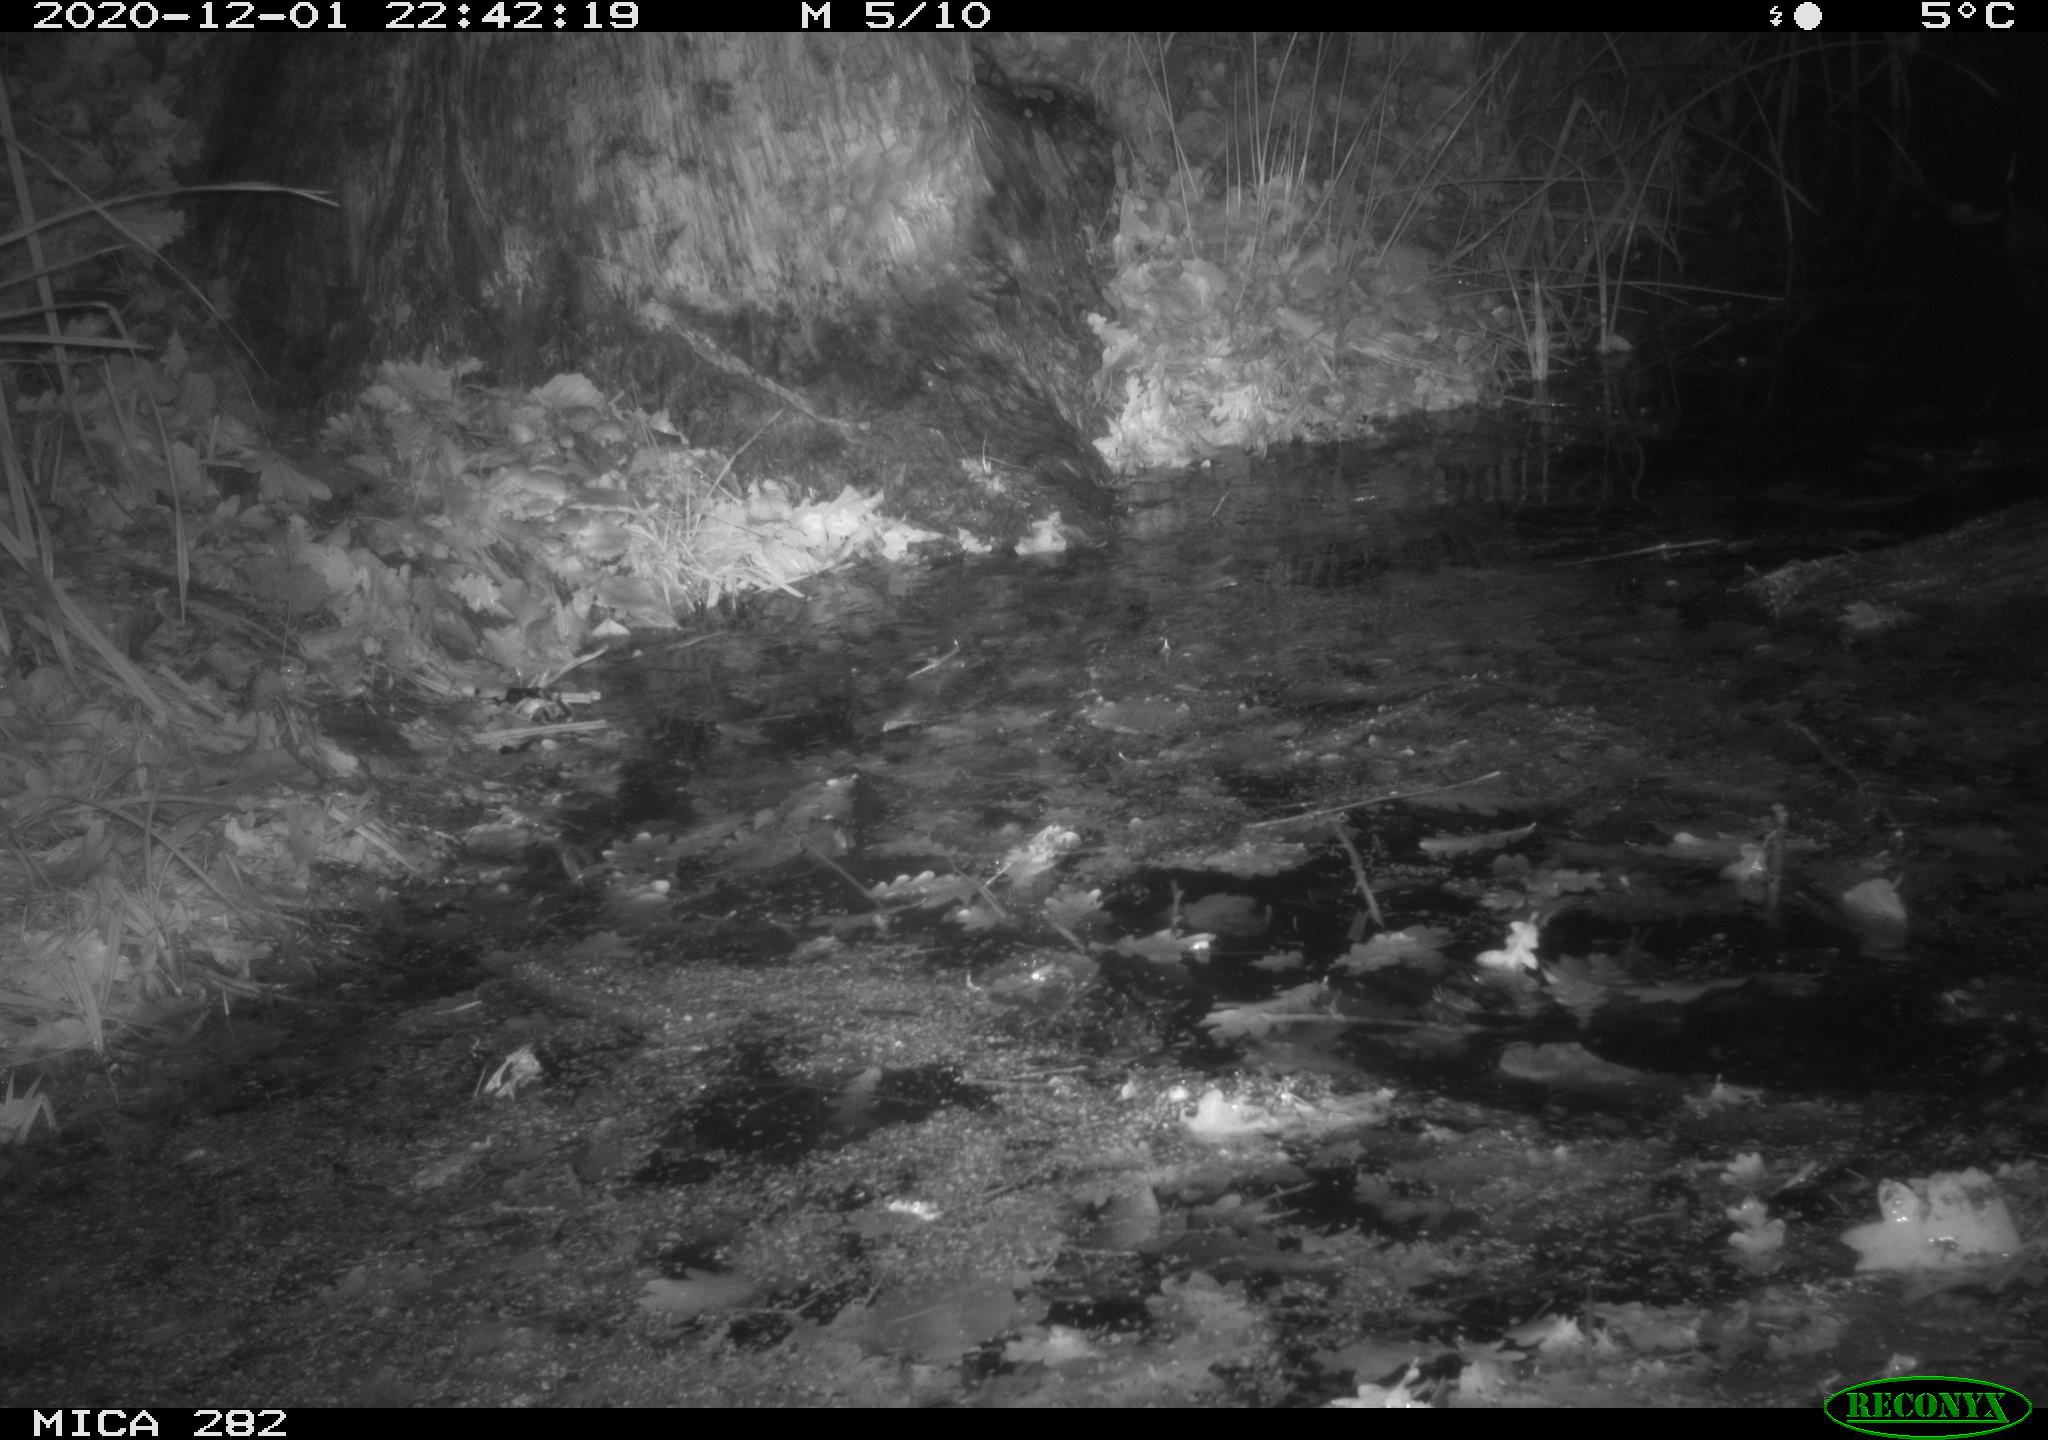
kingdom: Animalia
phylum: Chordata
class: Mammalia
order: Rodentia
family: Castoridae
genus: Castor
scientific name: Castor fiber
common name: Eurasian beaver
